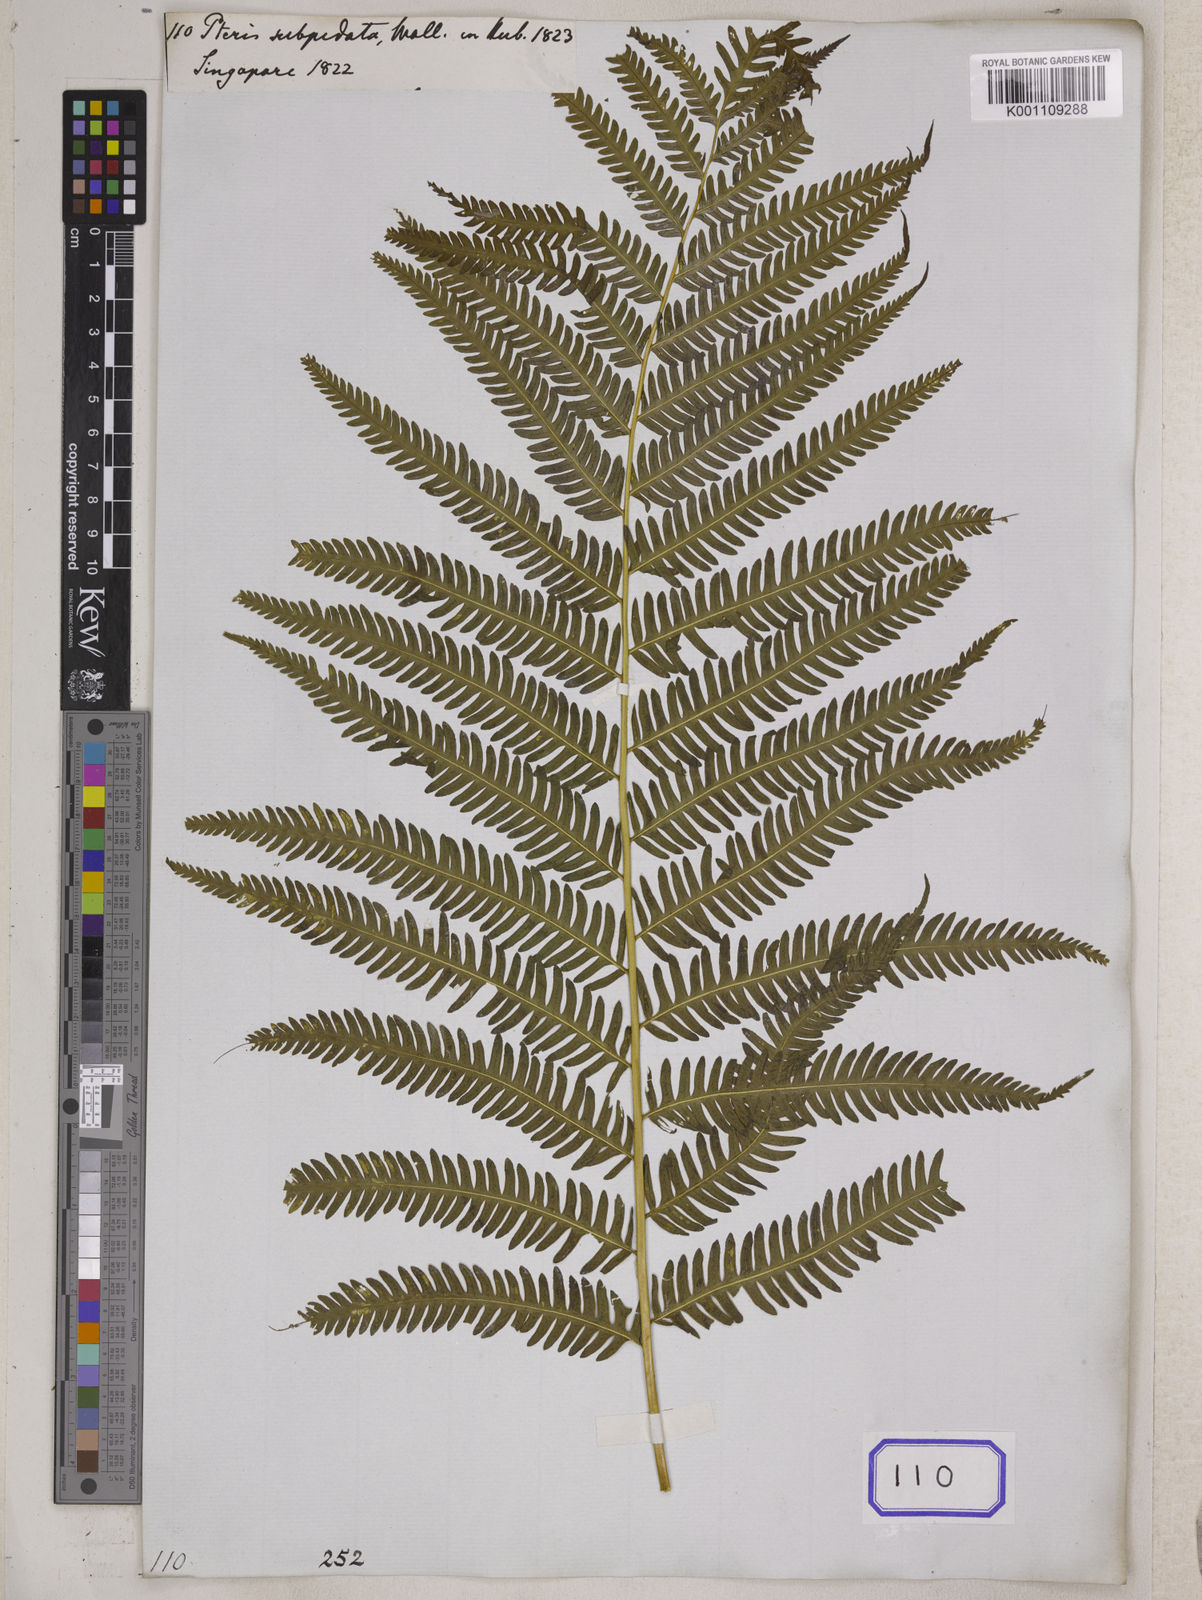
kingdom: Plantae
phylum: Tracheophyta
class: Polypodiopsida
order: Polypodiales
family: Pteridaceae
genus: Pteris
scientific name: Pteris tripartita
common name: Giant brake
